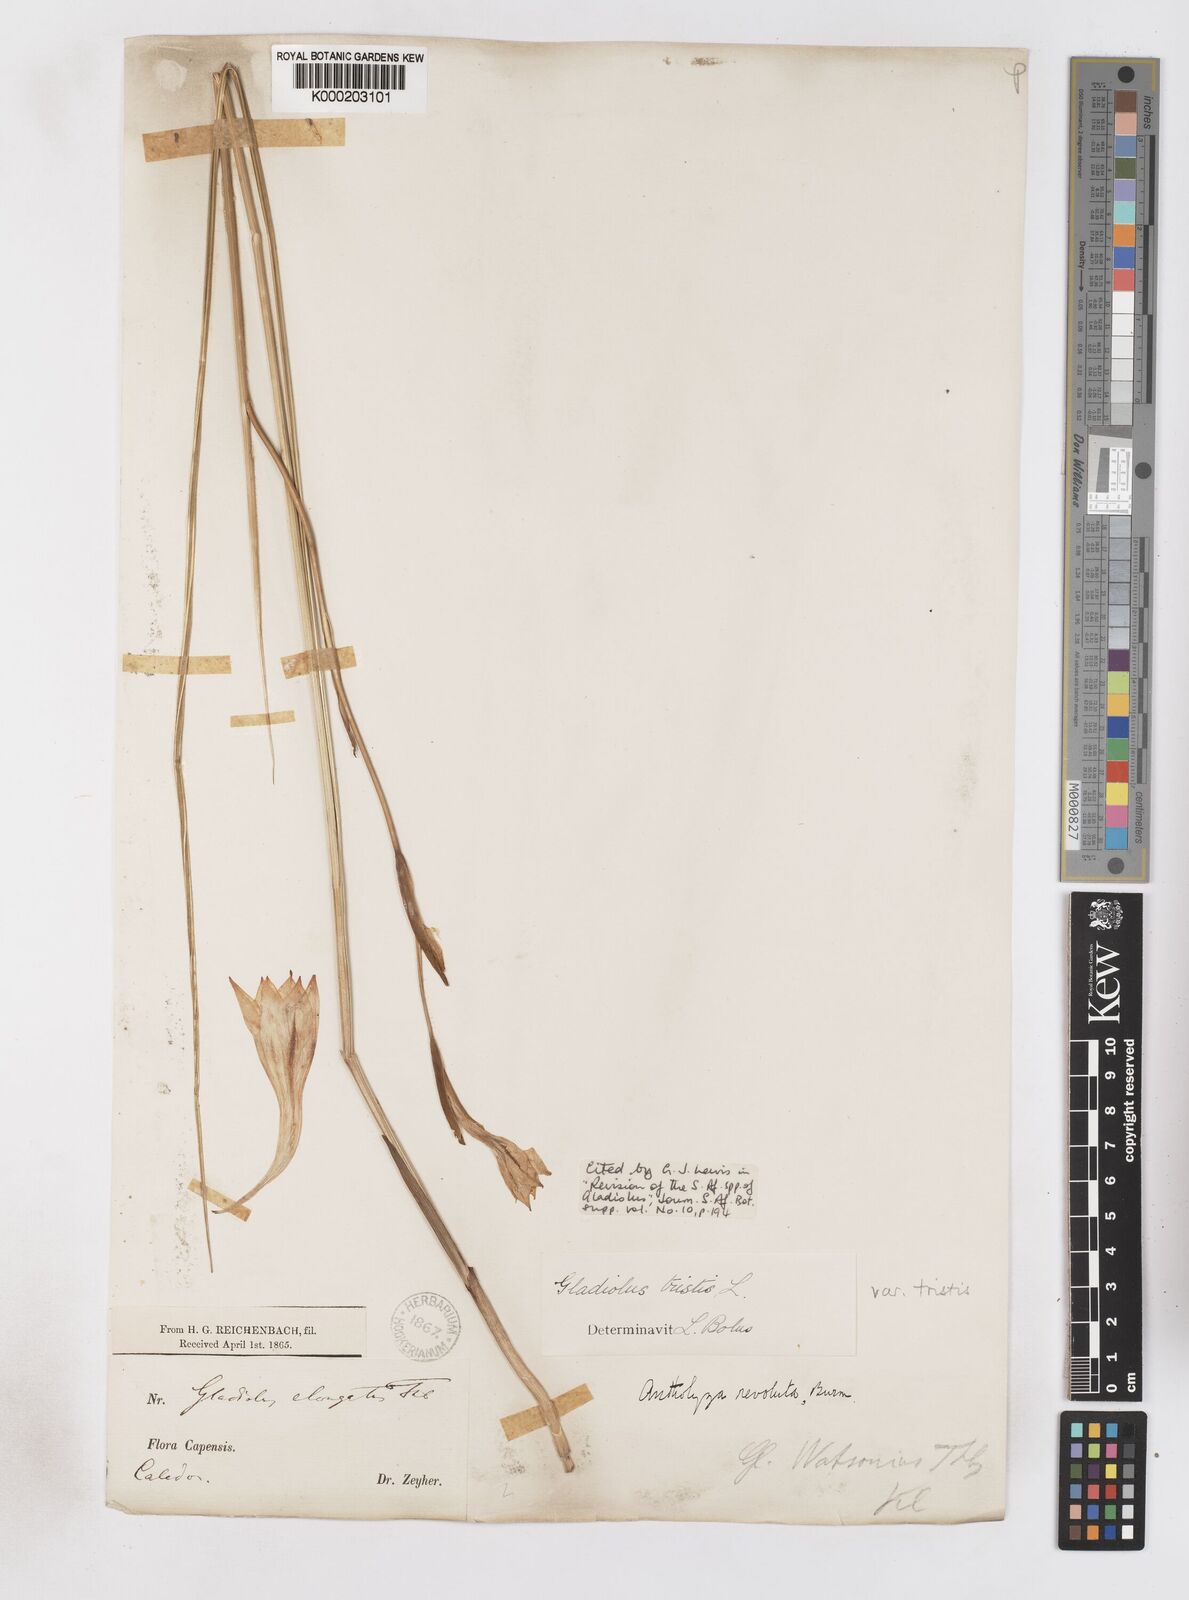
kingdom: Plantae
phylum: Tracheophyta
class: Liliopsida
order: Asparagales
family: Iridaceae
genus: Gladiolus
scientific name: Gladiolus tristis
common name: Ever-flowering gladiolus
